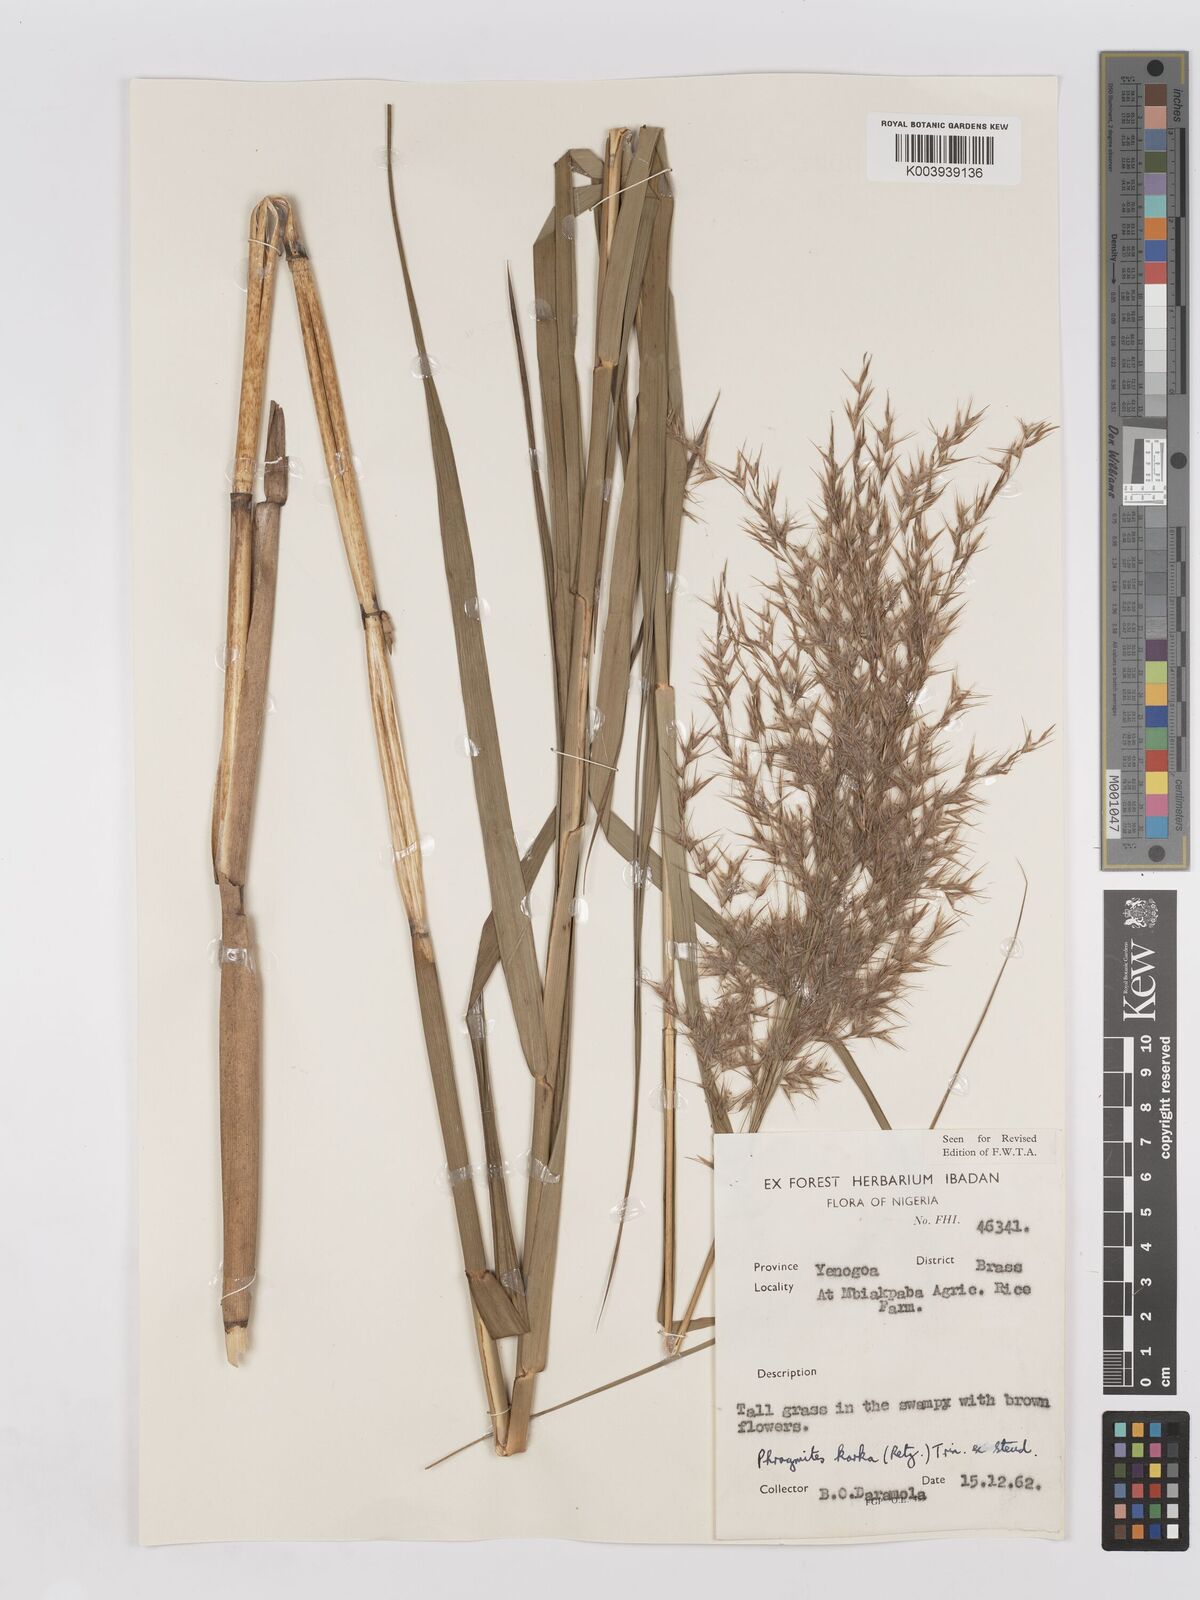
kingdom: Plantae
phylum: Tracheophyta
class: Liliopsida
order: Poales
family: Poaceae
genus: Phragmites
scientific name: Phragmites karka
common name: Tropical reed
